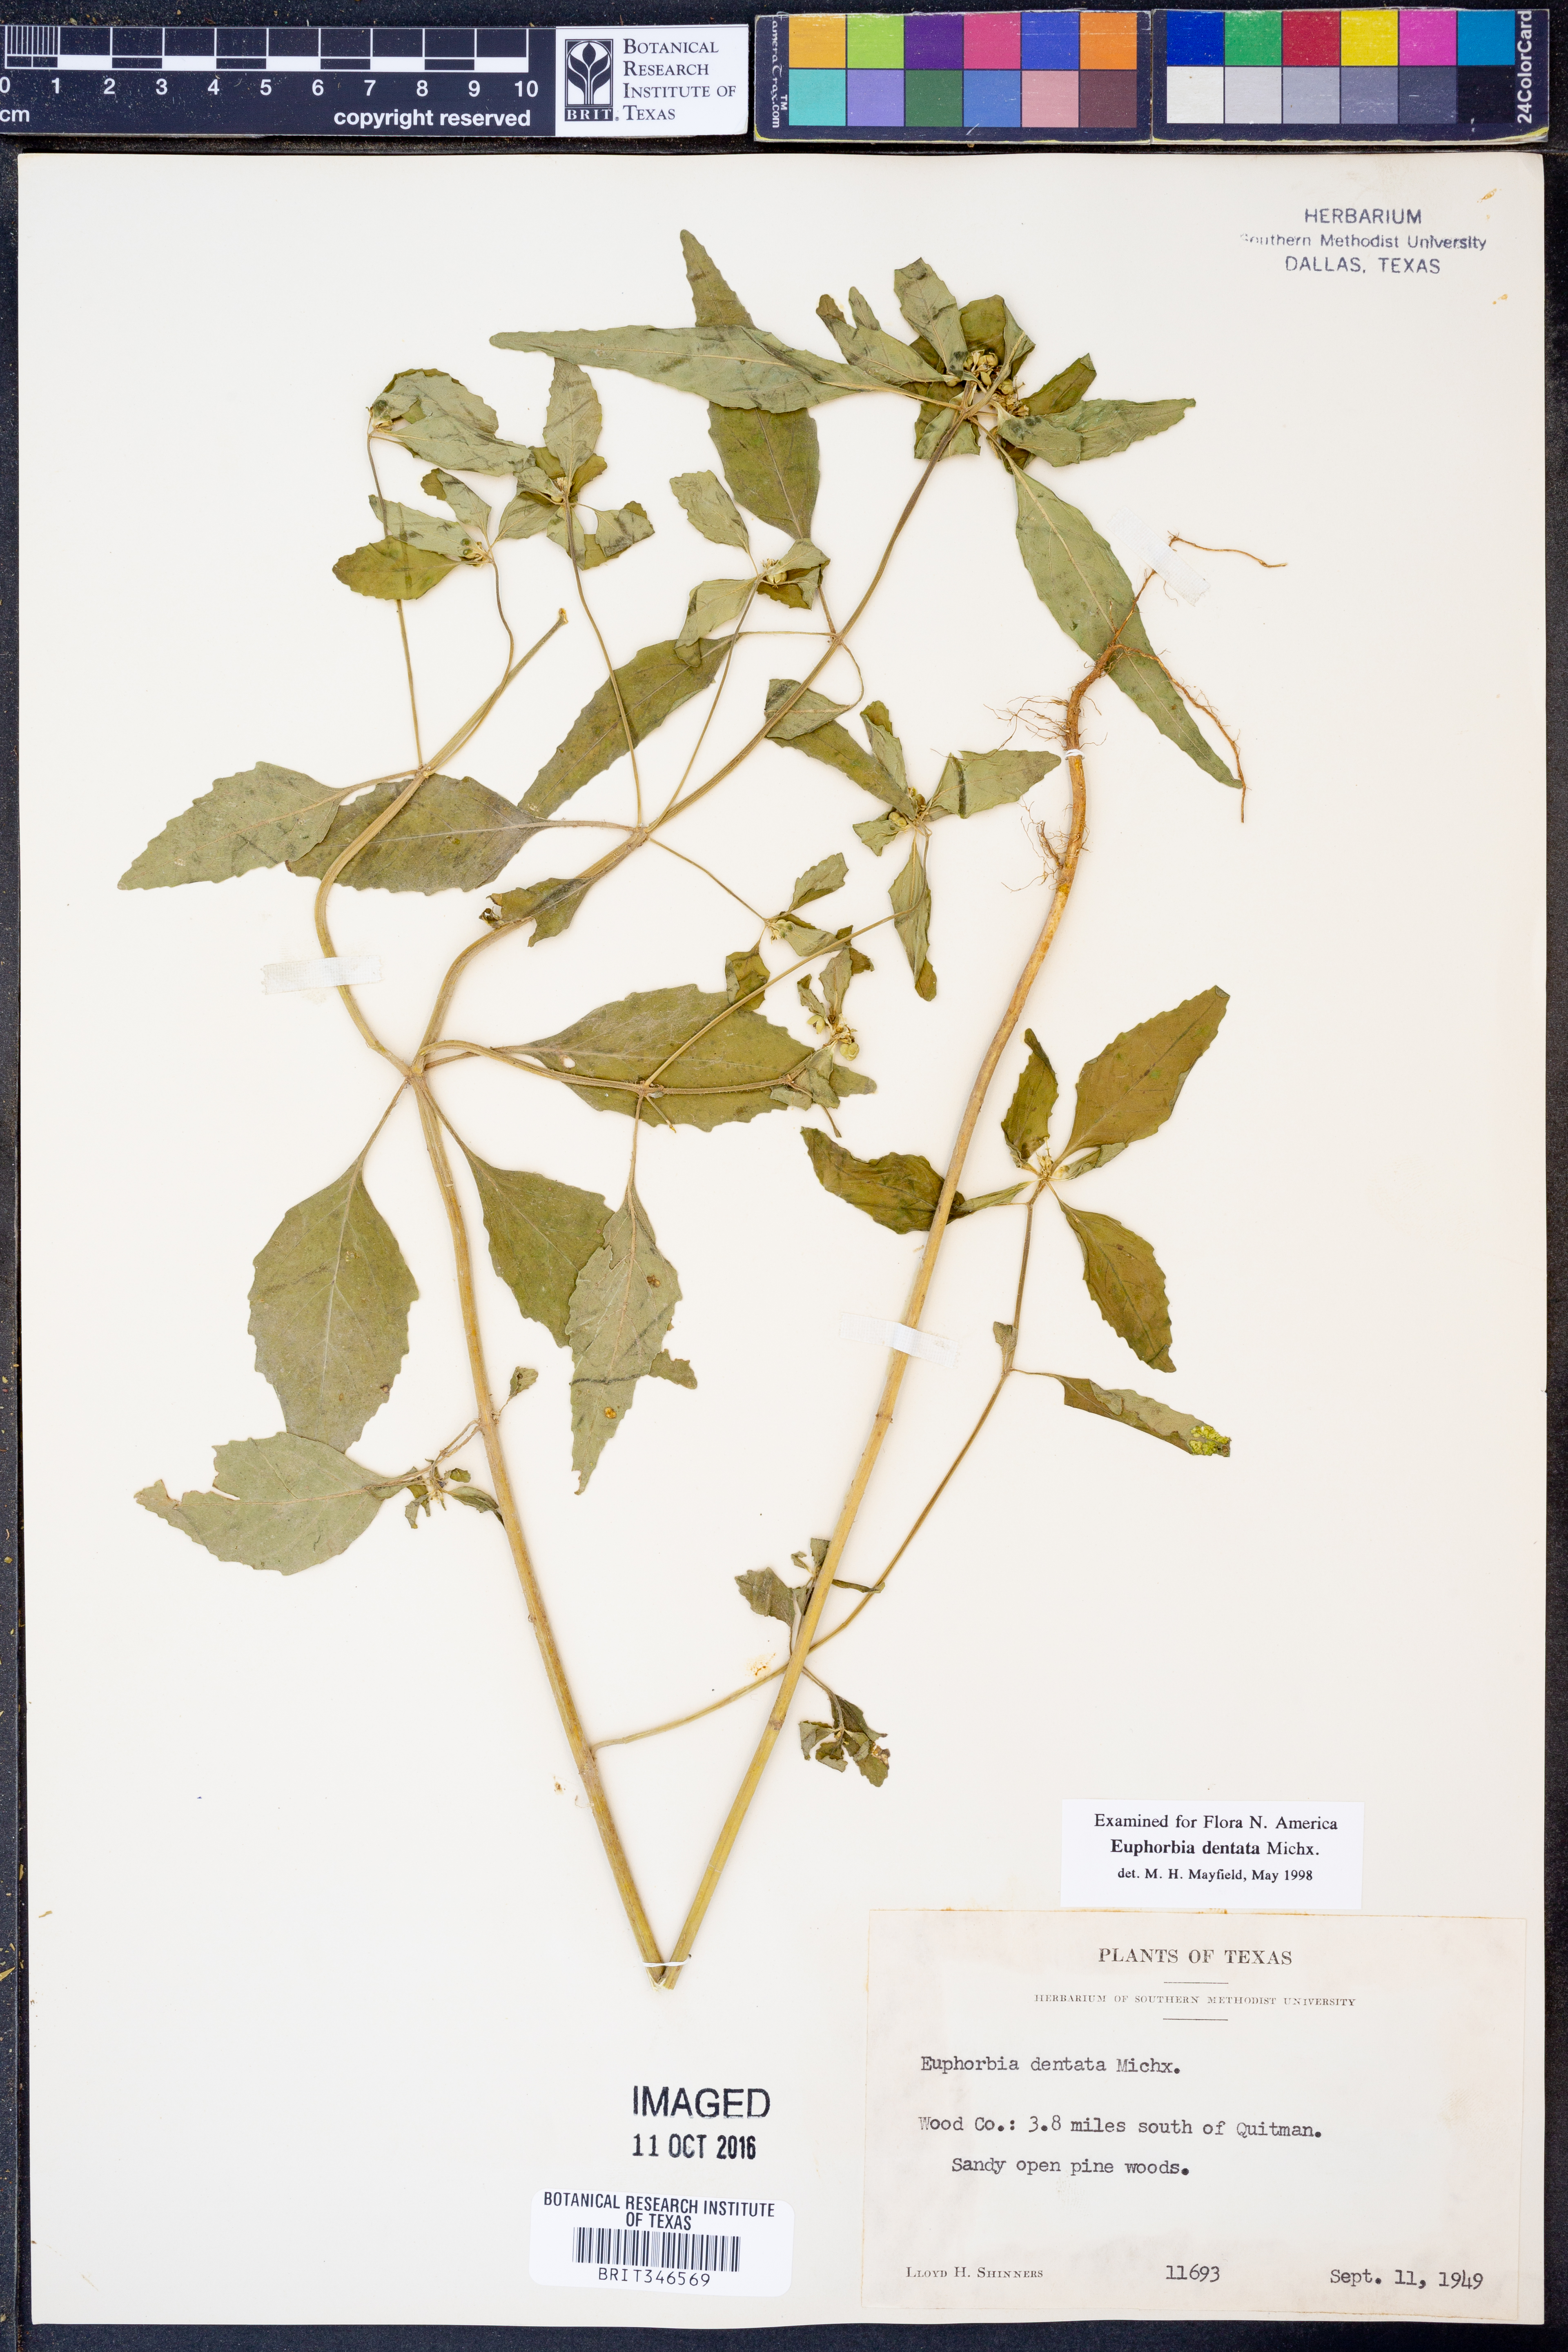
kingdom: Plantae
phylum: Tracheophyta
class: Magnoliopsida
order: Malpighiales
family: Euphorbiaceae
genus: Euphorbia
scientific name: Euphorbia dentata
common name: Dentate spurge
